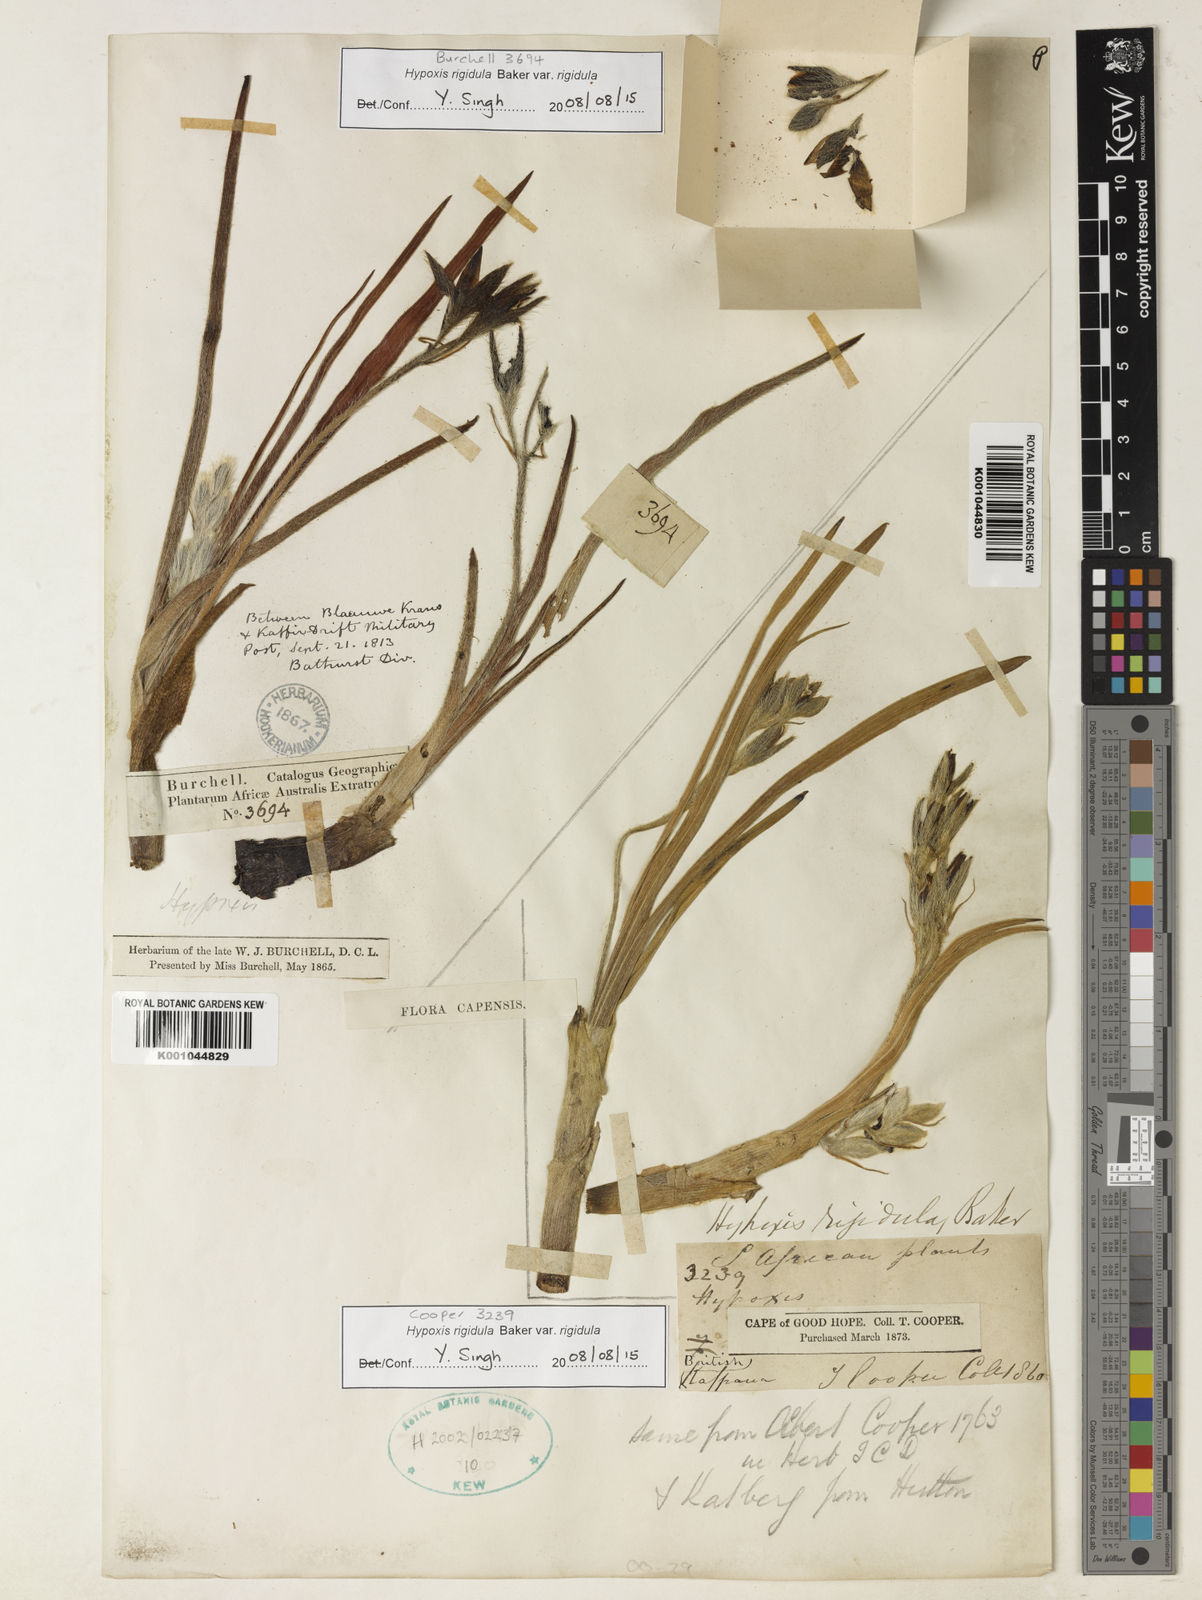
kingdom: Plantae
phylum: Tracheophyta
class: Liliopsida
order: Asparagales
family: Hypoxidaceae
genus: Hypoxis
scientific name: Hypoxis rigidula
